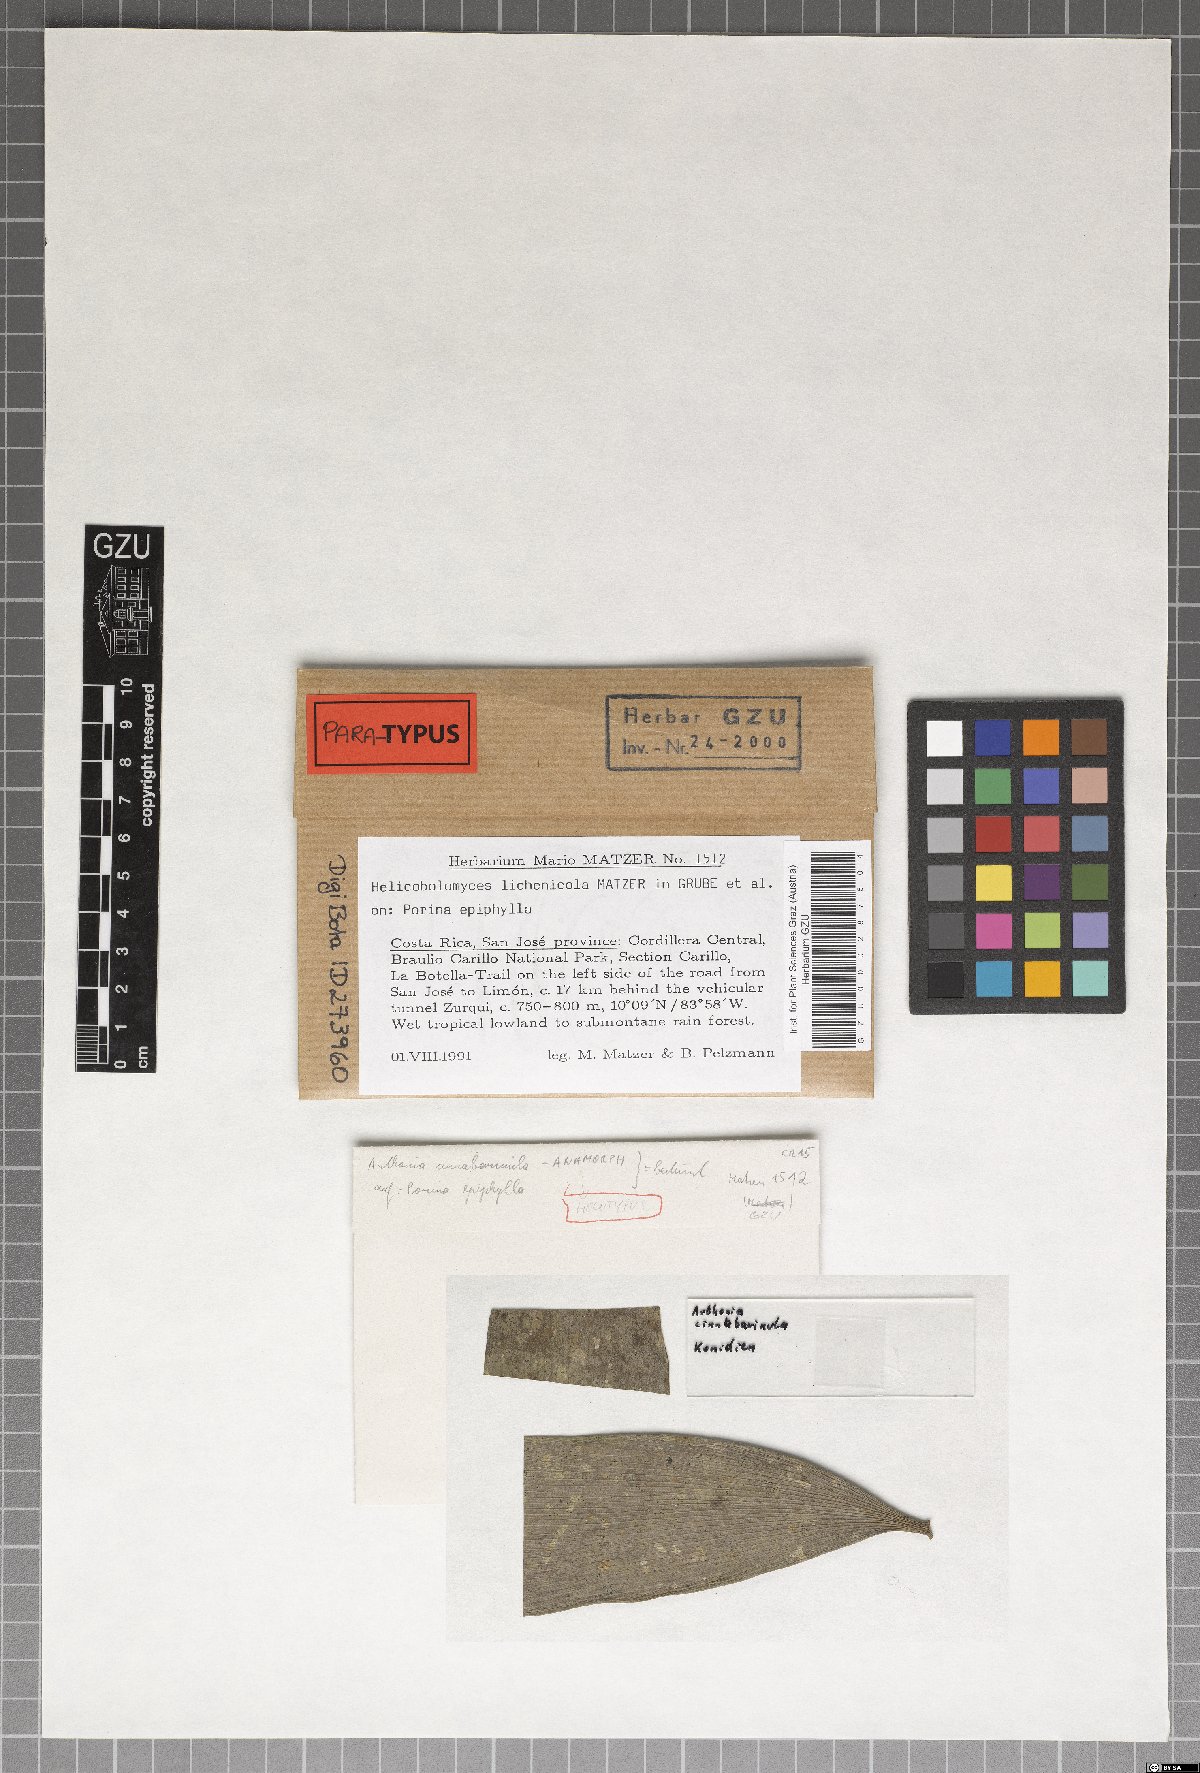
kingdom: Fungi
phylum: Ascomycota
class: Arthoniomycetes
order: Arthoniales
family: Arthoniaceae
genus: Helicobolomyces
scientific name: Helicobolomyces lichenicola
